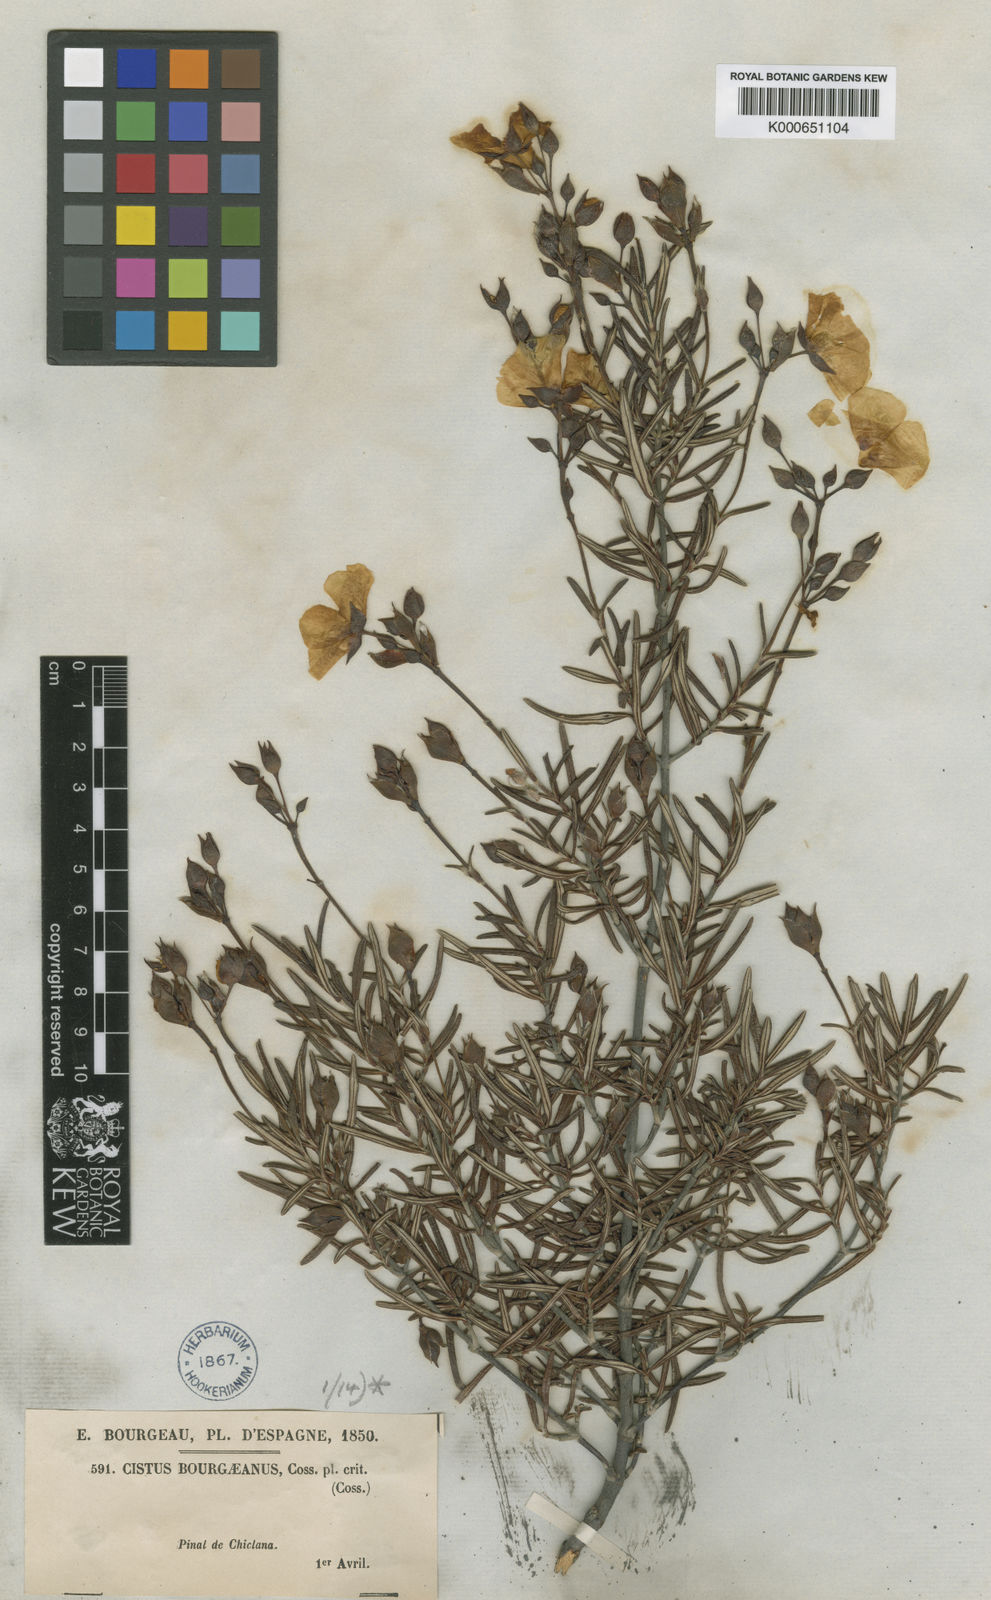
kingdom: Plantae
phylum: Tracheophyta
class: Magnoliopsida
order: Malvales
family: Cistaceae
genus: Cistus
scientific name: Cistus libanotis
